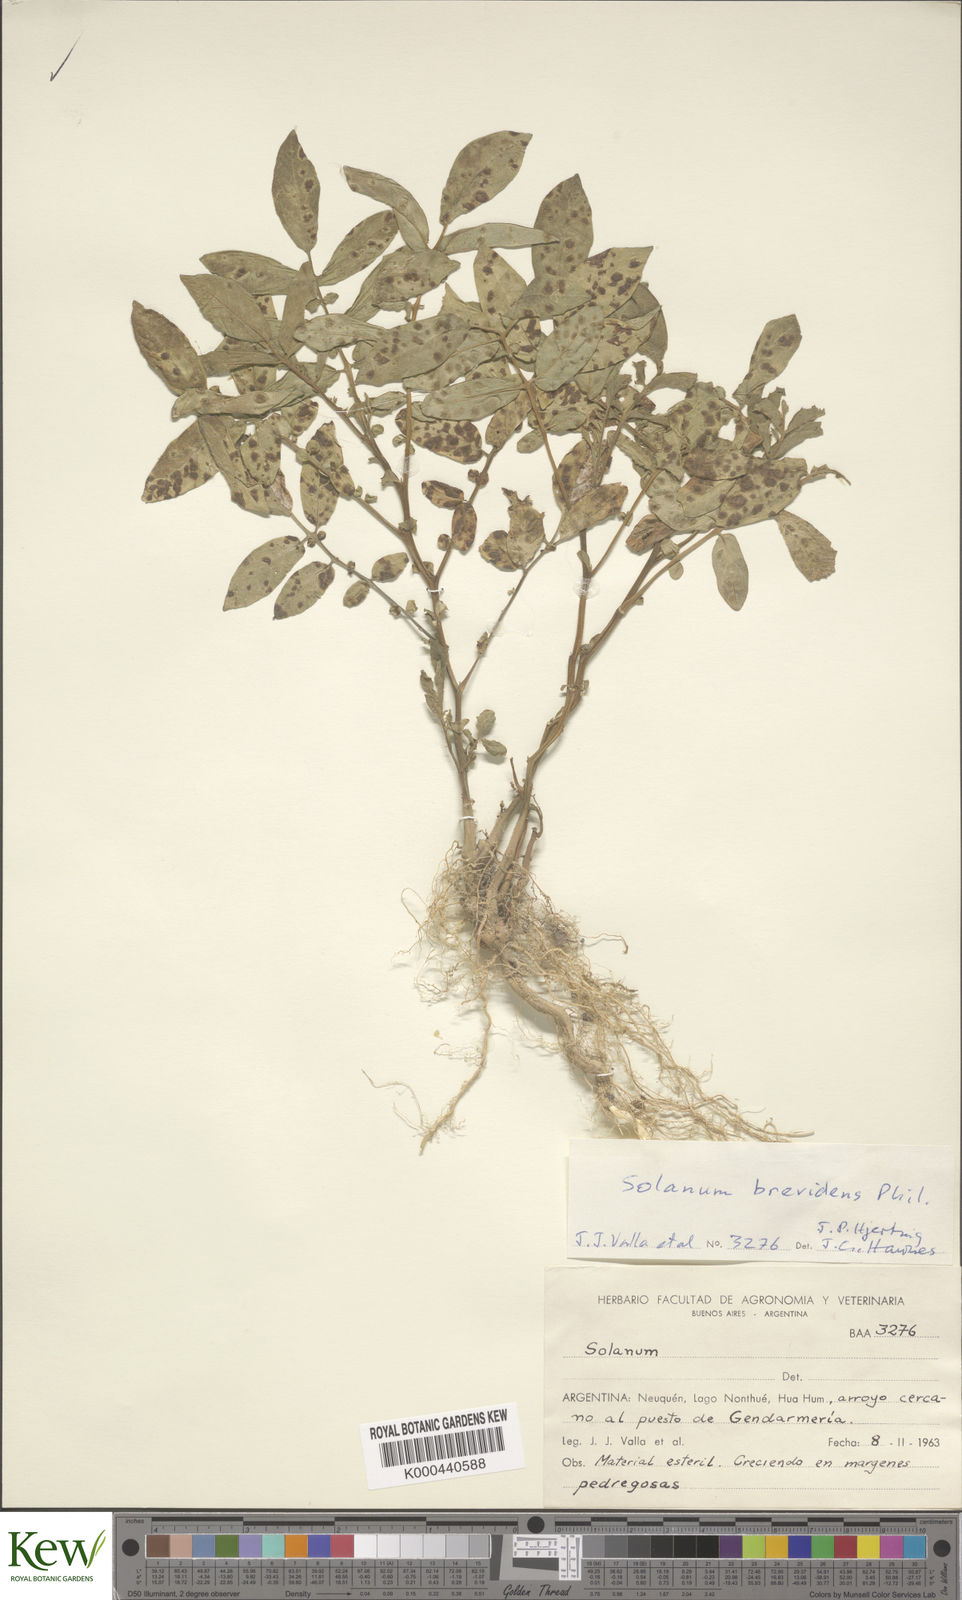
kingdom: Plantae
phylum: Tracheophyta
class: Magnoliopsida
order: Solanales
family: Solanaceae
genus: Solanum
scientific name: Solanum palustre
